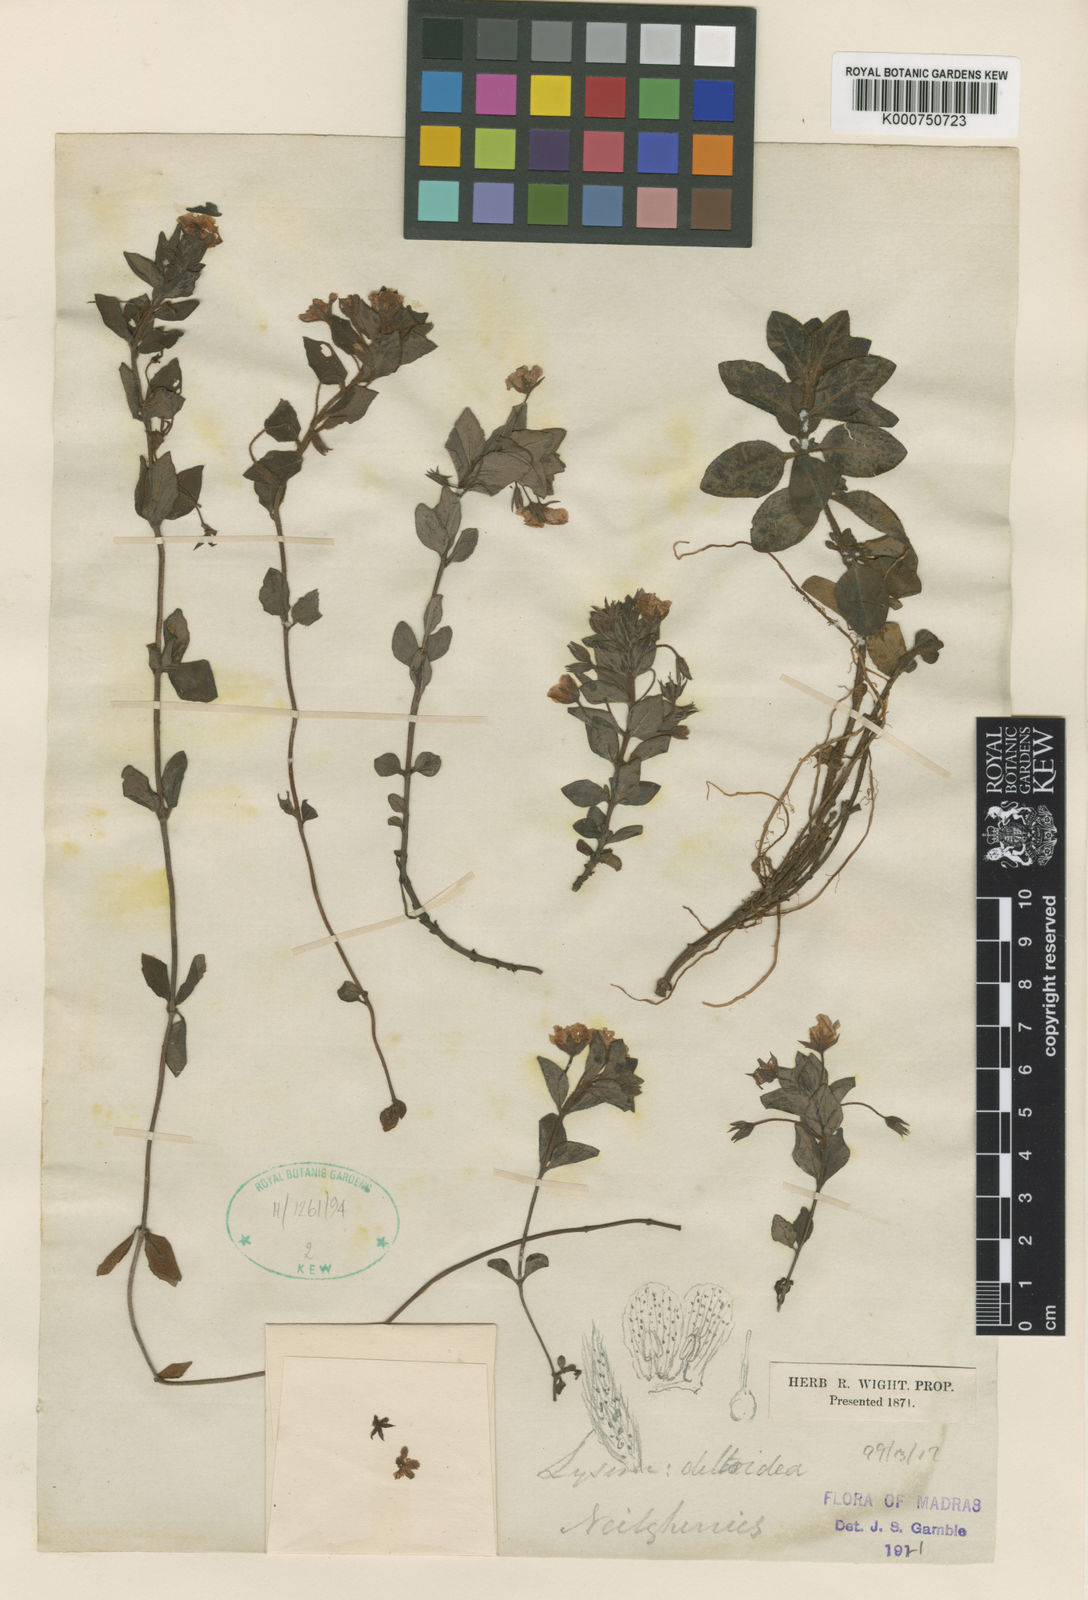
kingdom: Plantae
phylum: Tracheophyta
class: Magnoliopsida
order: Ericales
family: Primulaceae
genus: Lysimachia
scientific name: Lysimachia deltoidea
